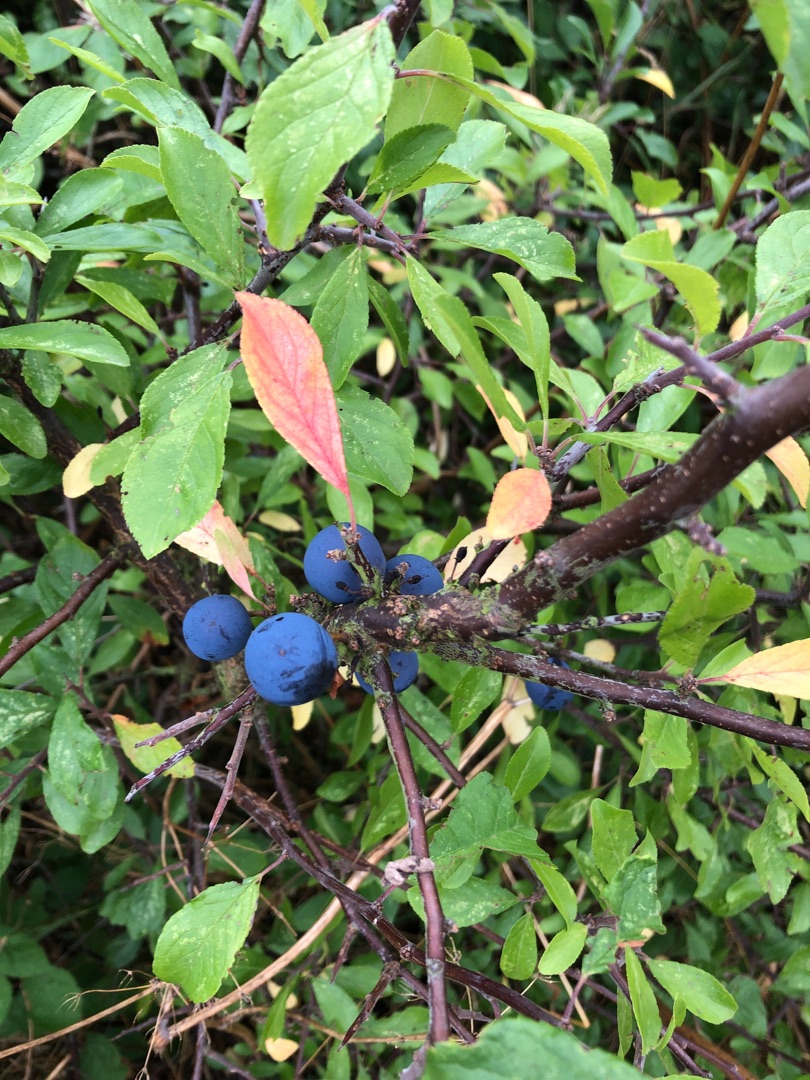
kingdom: Plantae
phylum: Tracheophyta
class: Magnoliopsida
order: Rosales
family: Rosaceae
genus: Prunus
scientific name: Prunus spinosa
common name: Slåen
